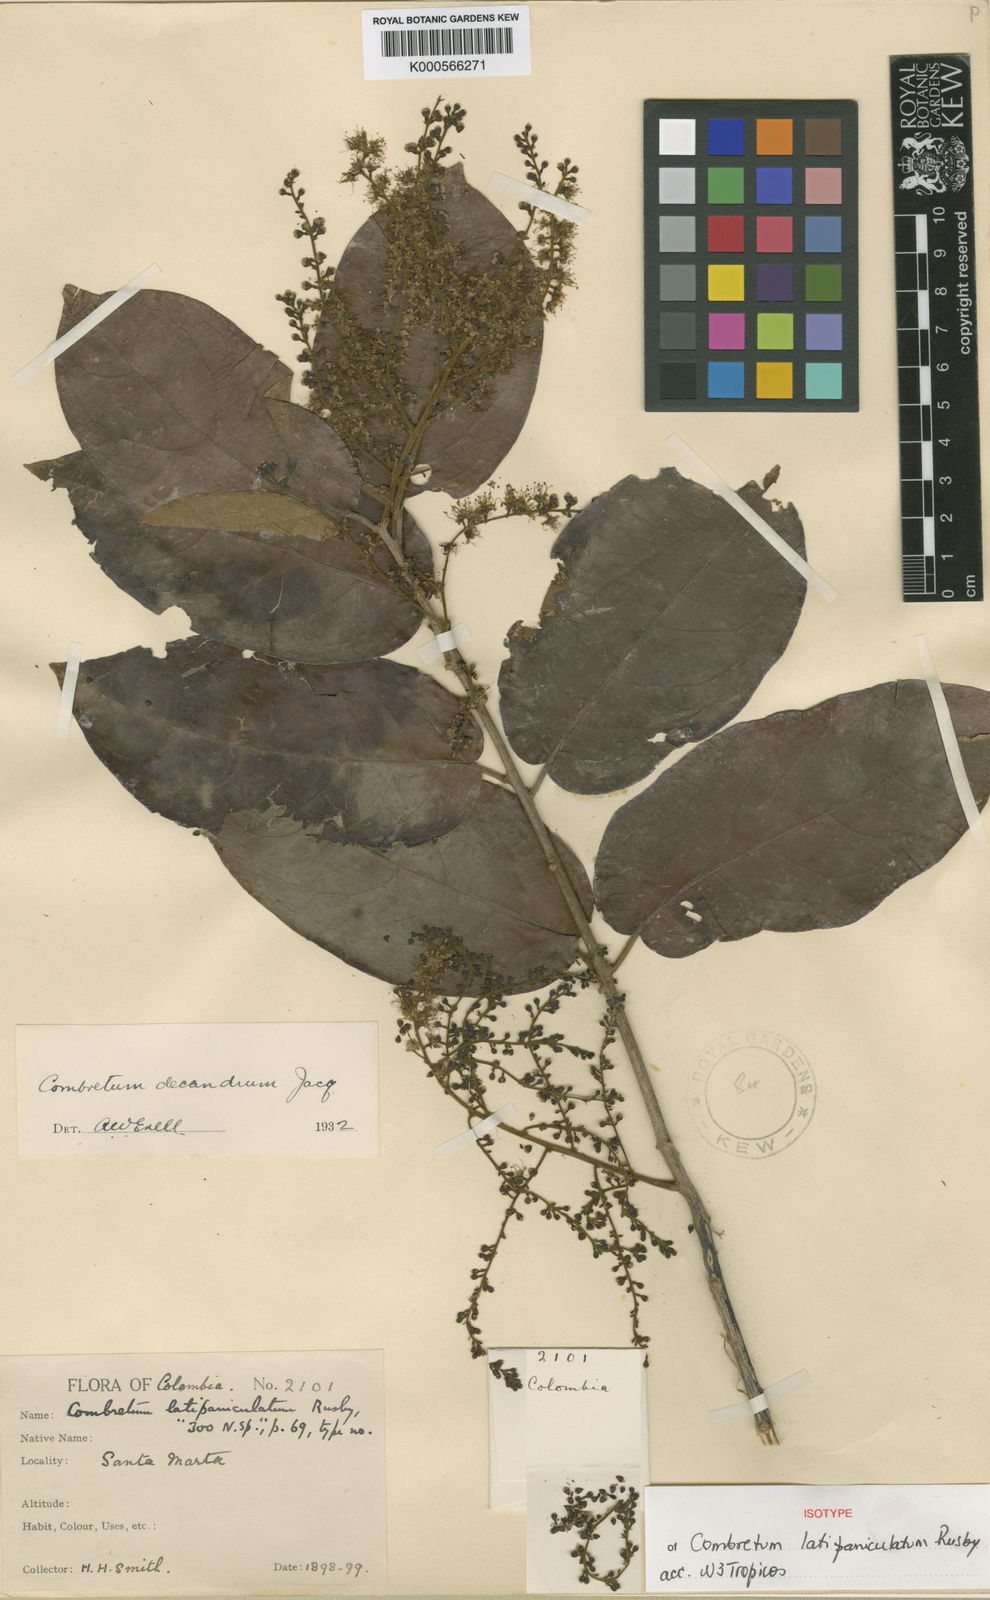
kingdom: Plantae
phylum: Tracheophyta
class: Magnoliopsida
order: Myrtales
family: Combretaceae
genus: Combretum
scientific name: Combretum decandrum
